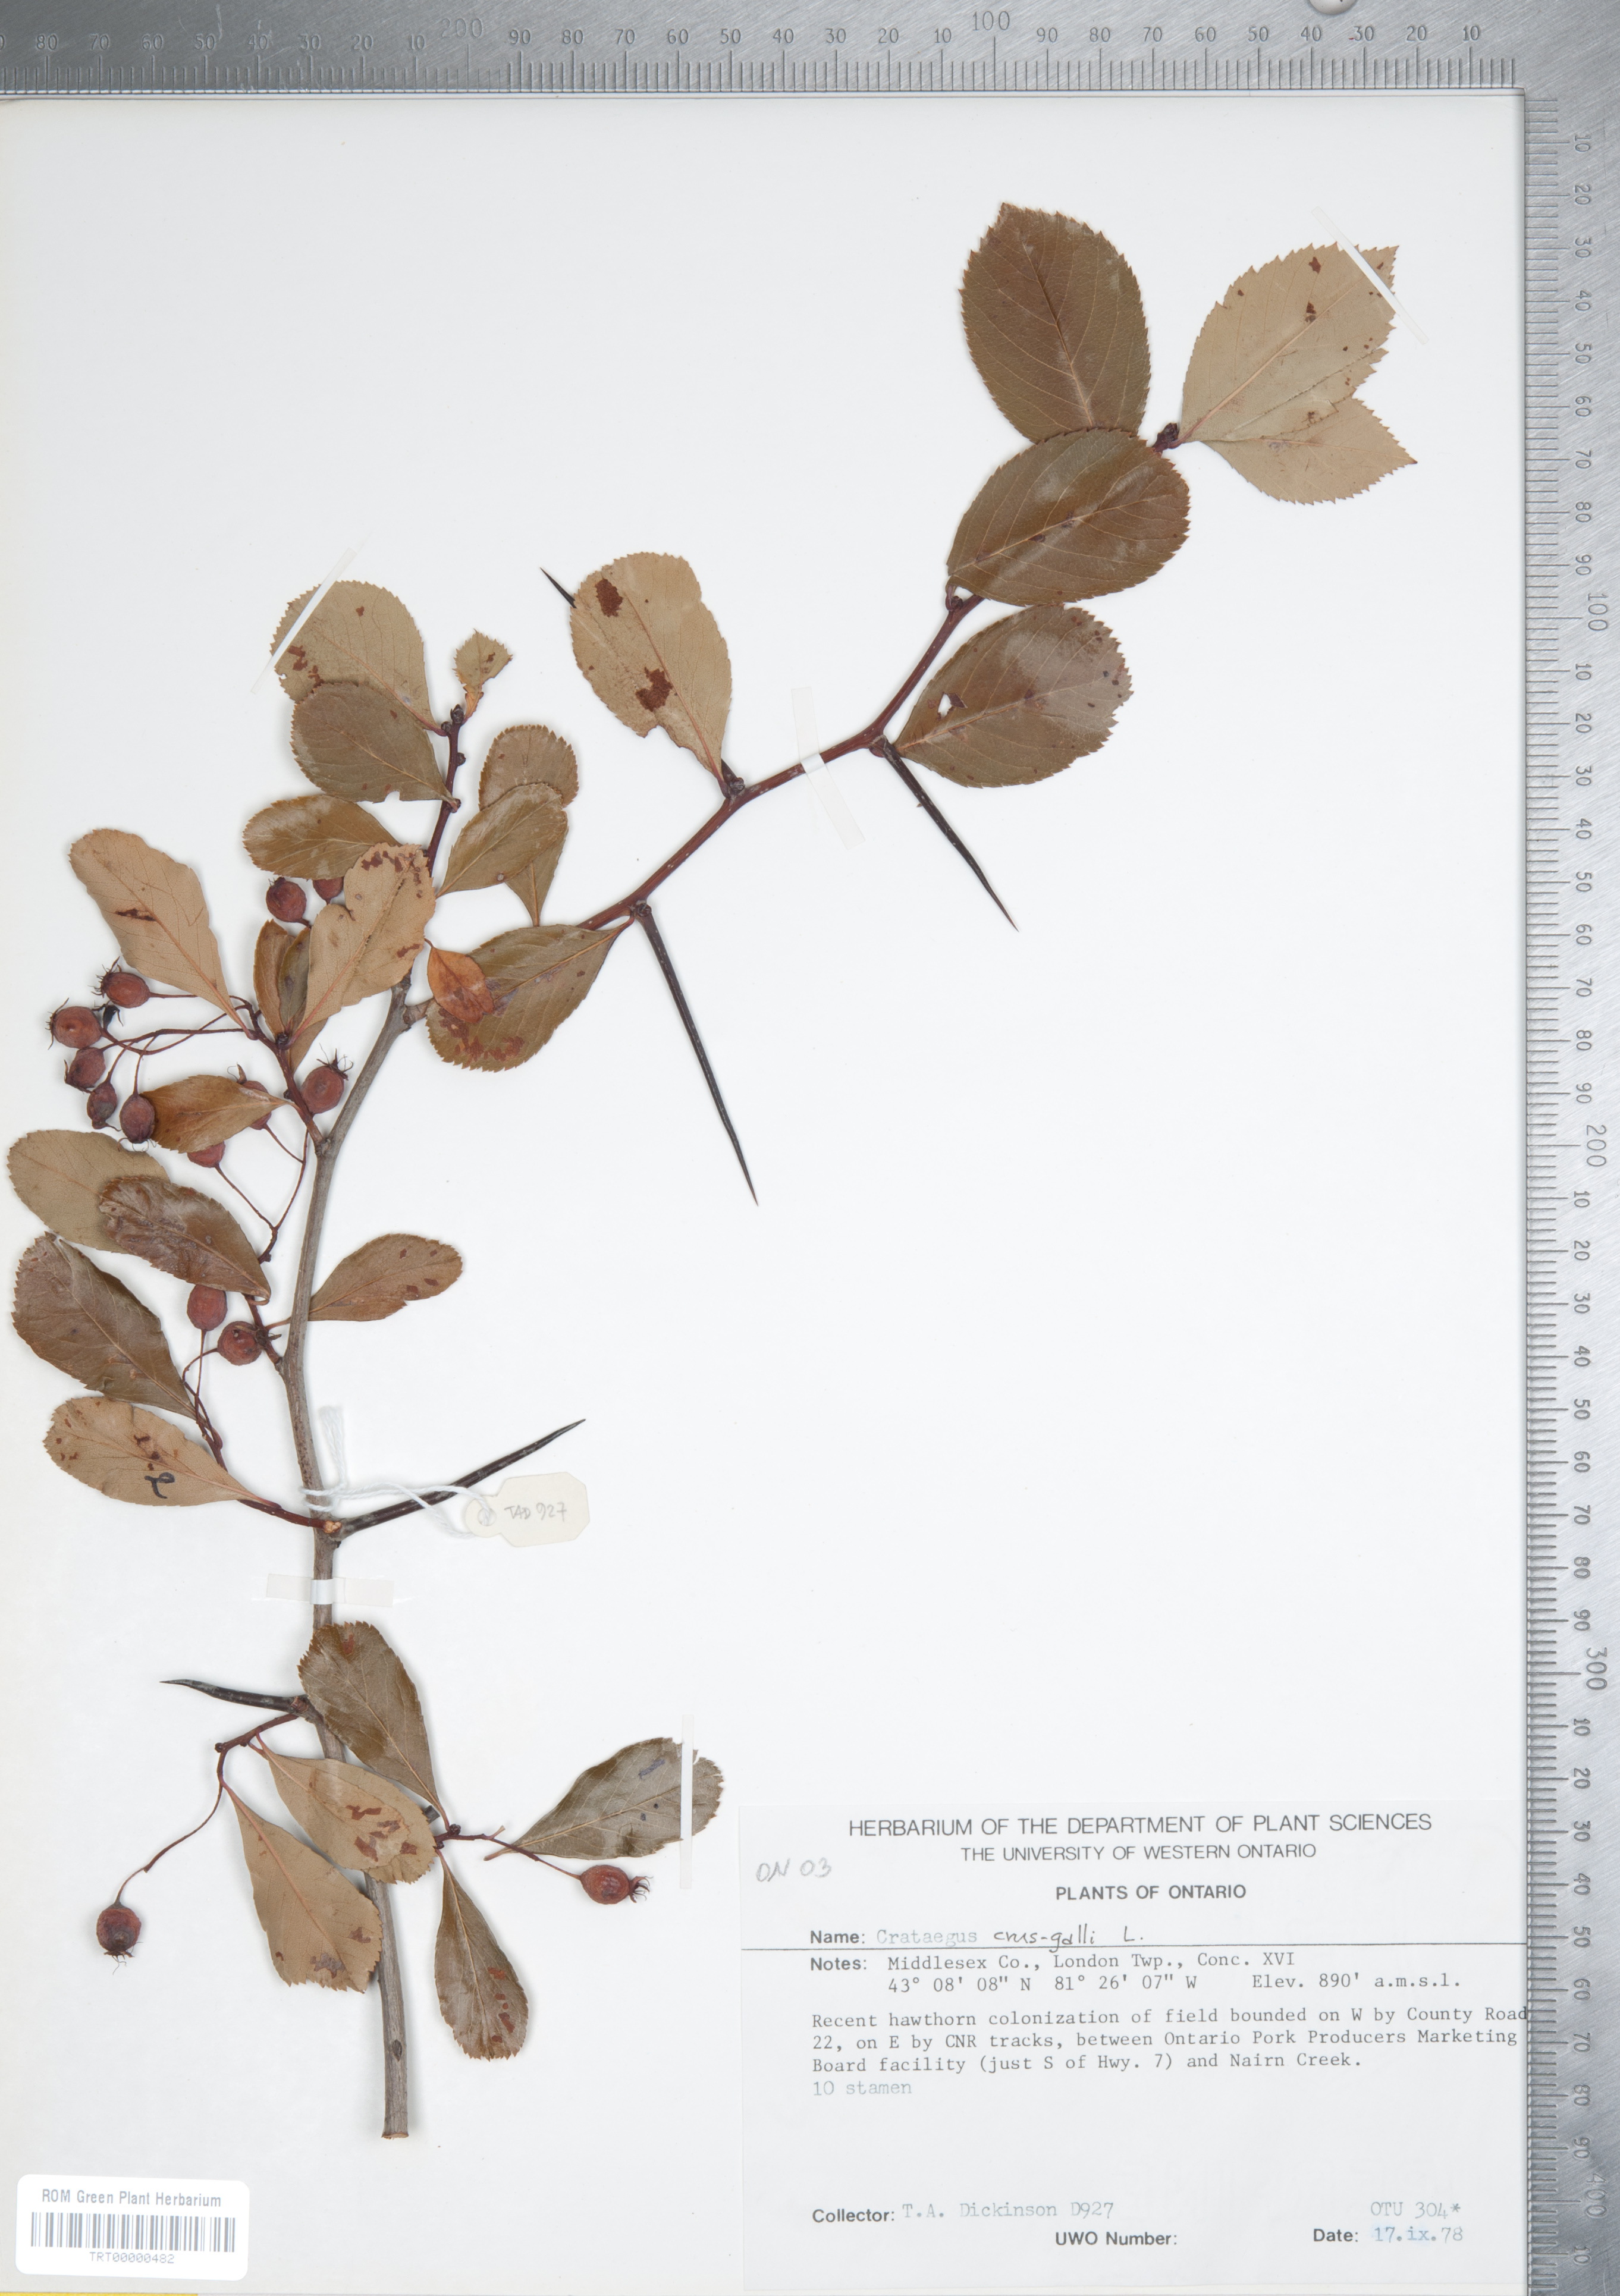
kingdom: Plantae
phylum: Tracheophyta
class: Magnoliopsida
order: Rosales
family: Rosaceae
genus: Crataegus
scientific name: Crataegus crus-galli
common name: Cockspurthorn
